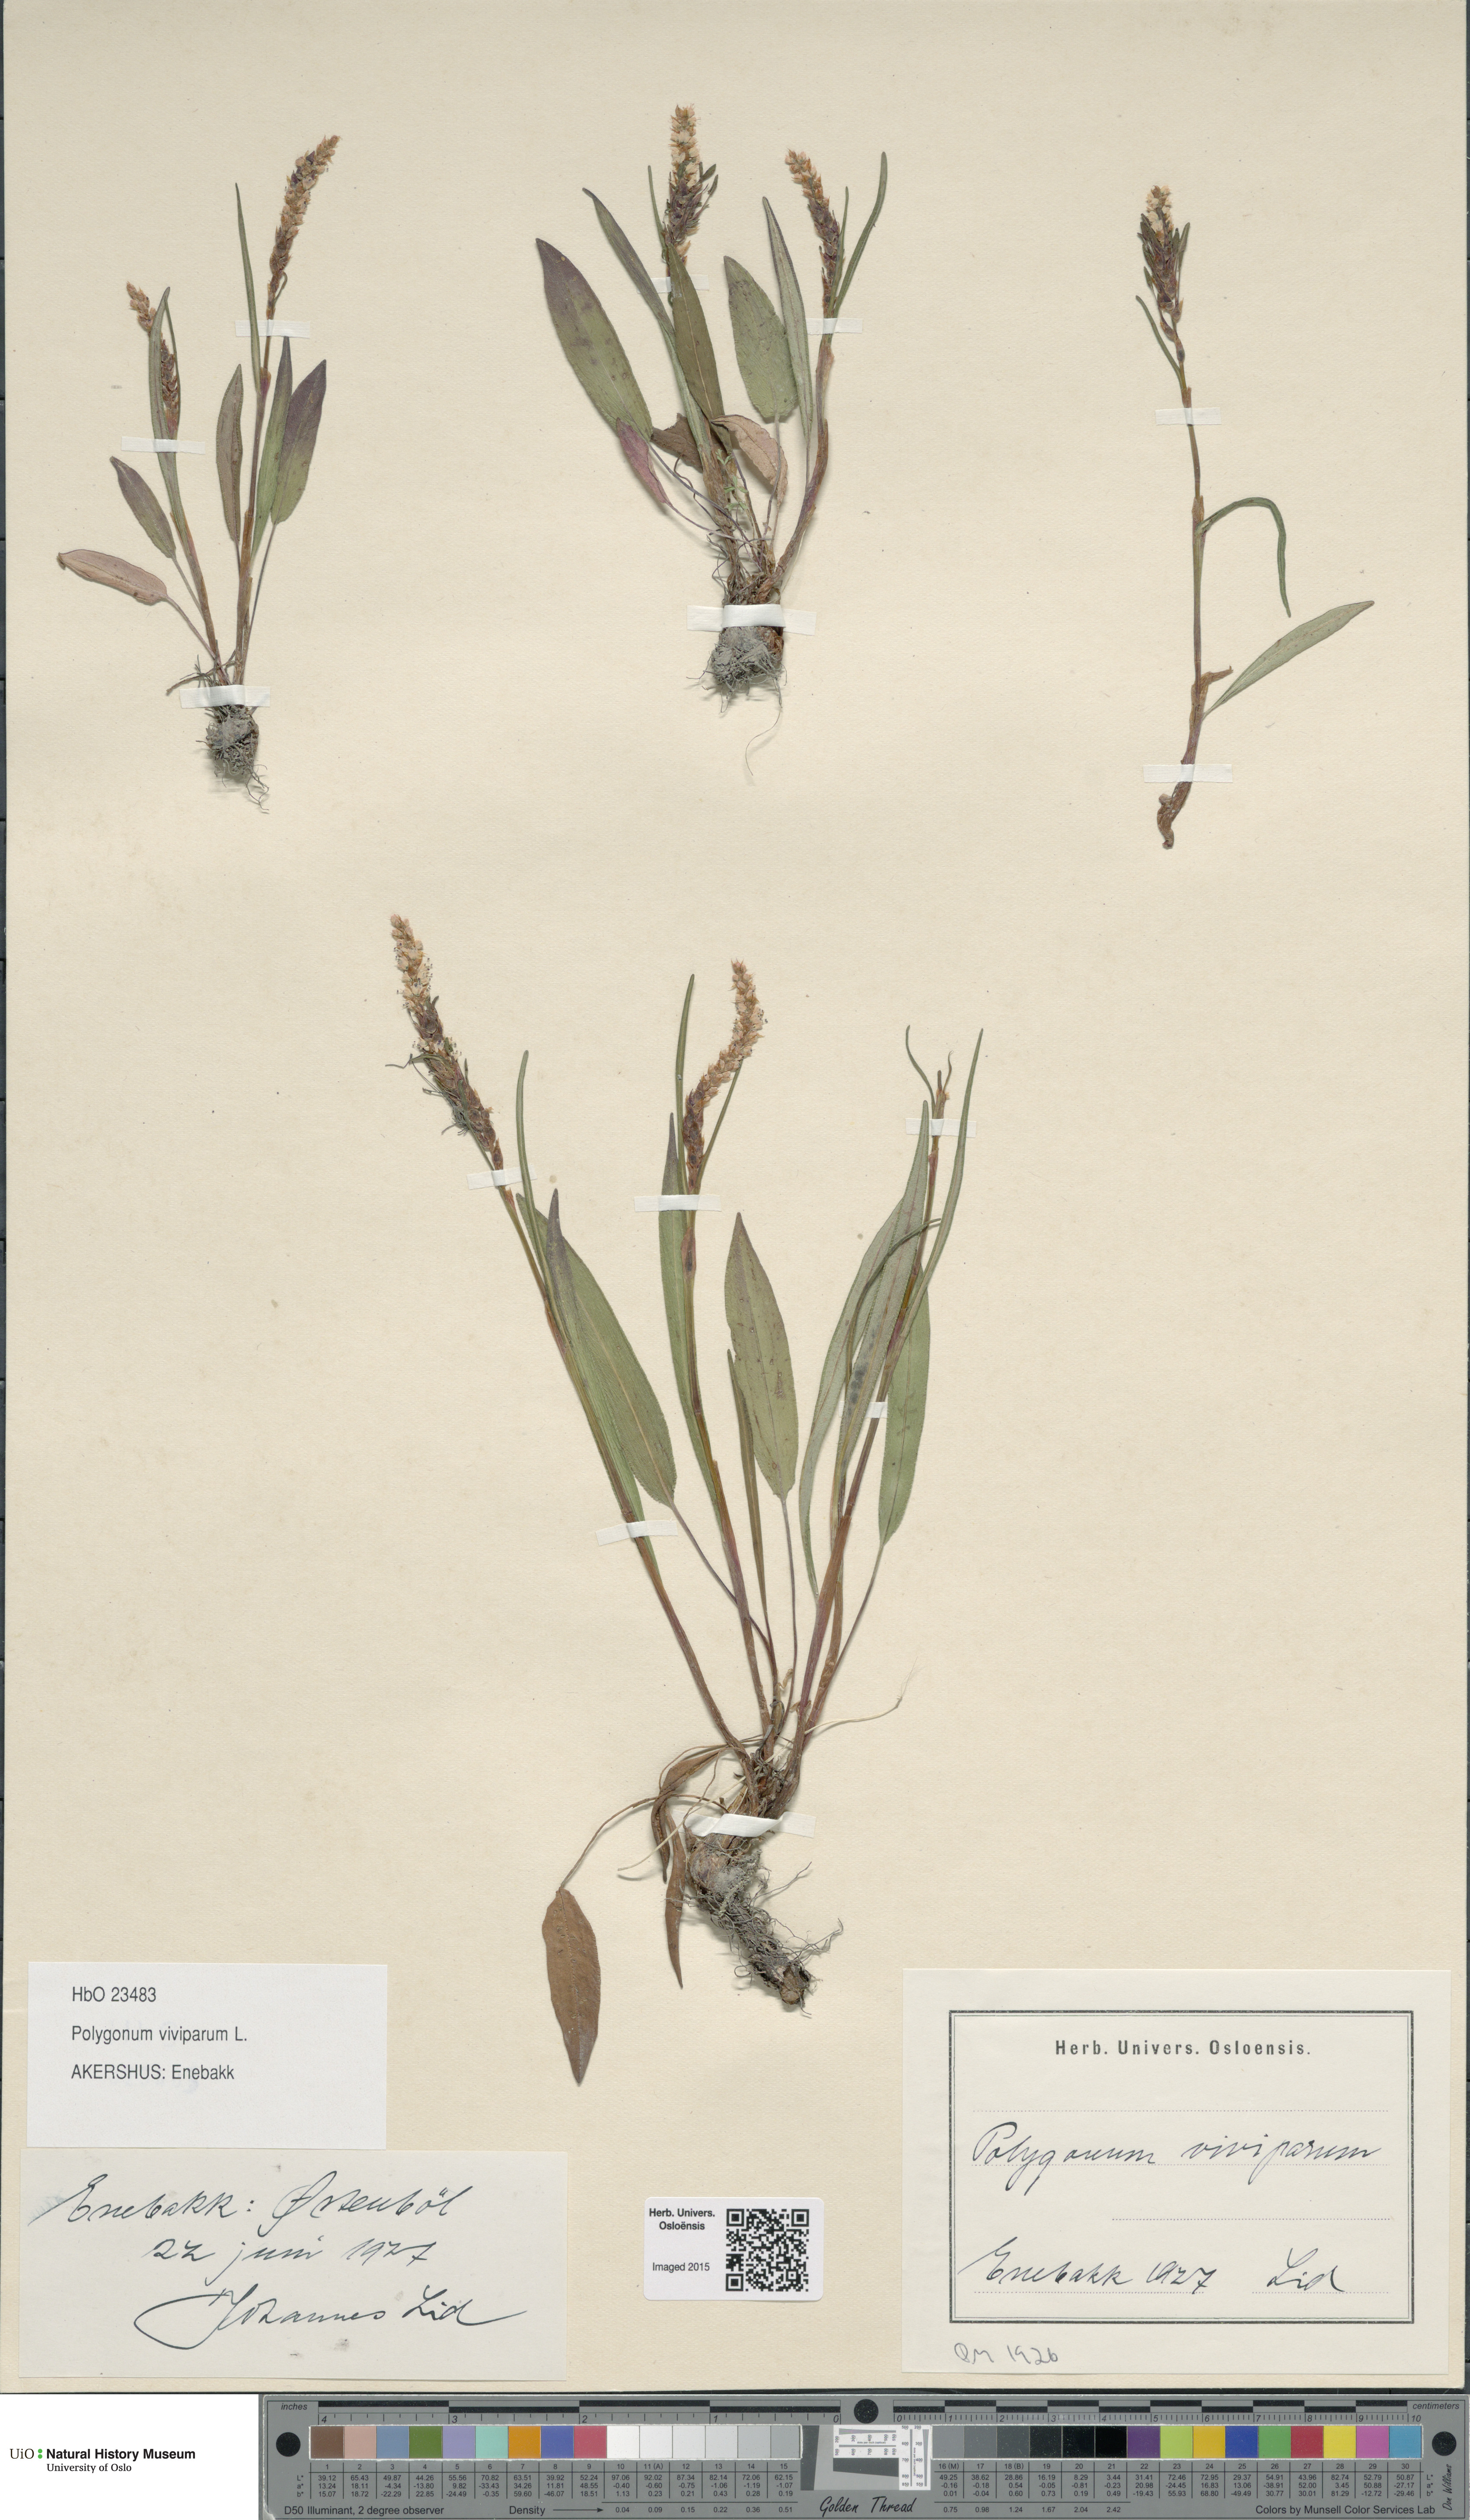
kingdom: Plantae
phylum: Tracheophyta
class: Magnoliopsida
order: Caryophyllales
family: Polygonaceae
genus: Bistorta
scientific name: Bistorta vivipara
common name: Alpine bistort
